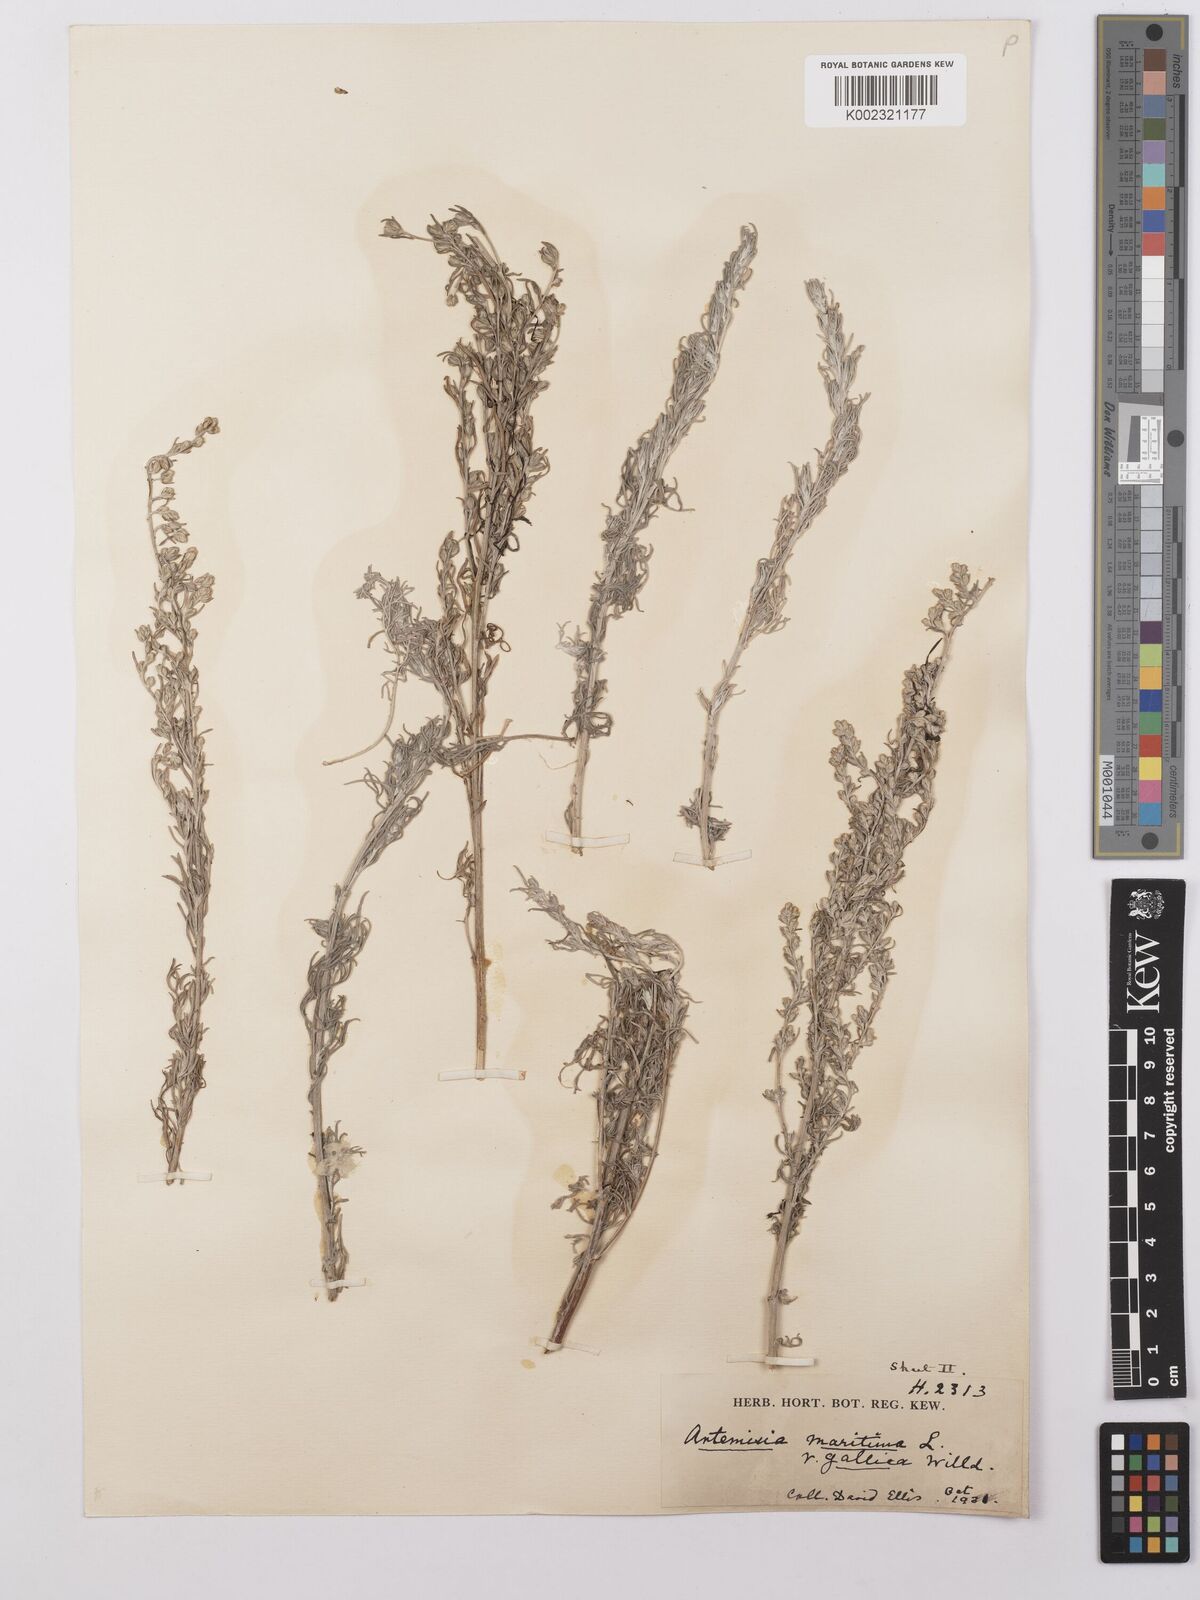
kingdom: Plantae
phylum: Tracheophyta
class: Magnoliopsida
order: Asterales
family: Asteraceae
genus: Artemisia
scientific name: Artemisia maritima
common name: Wormseed
